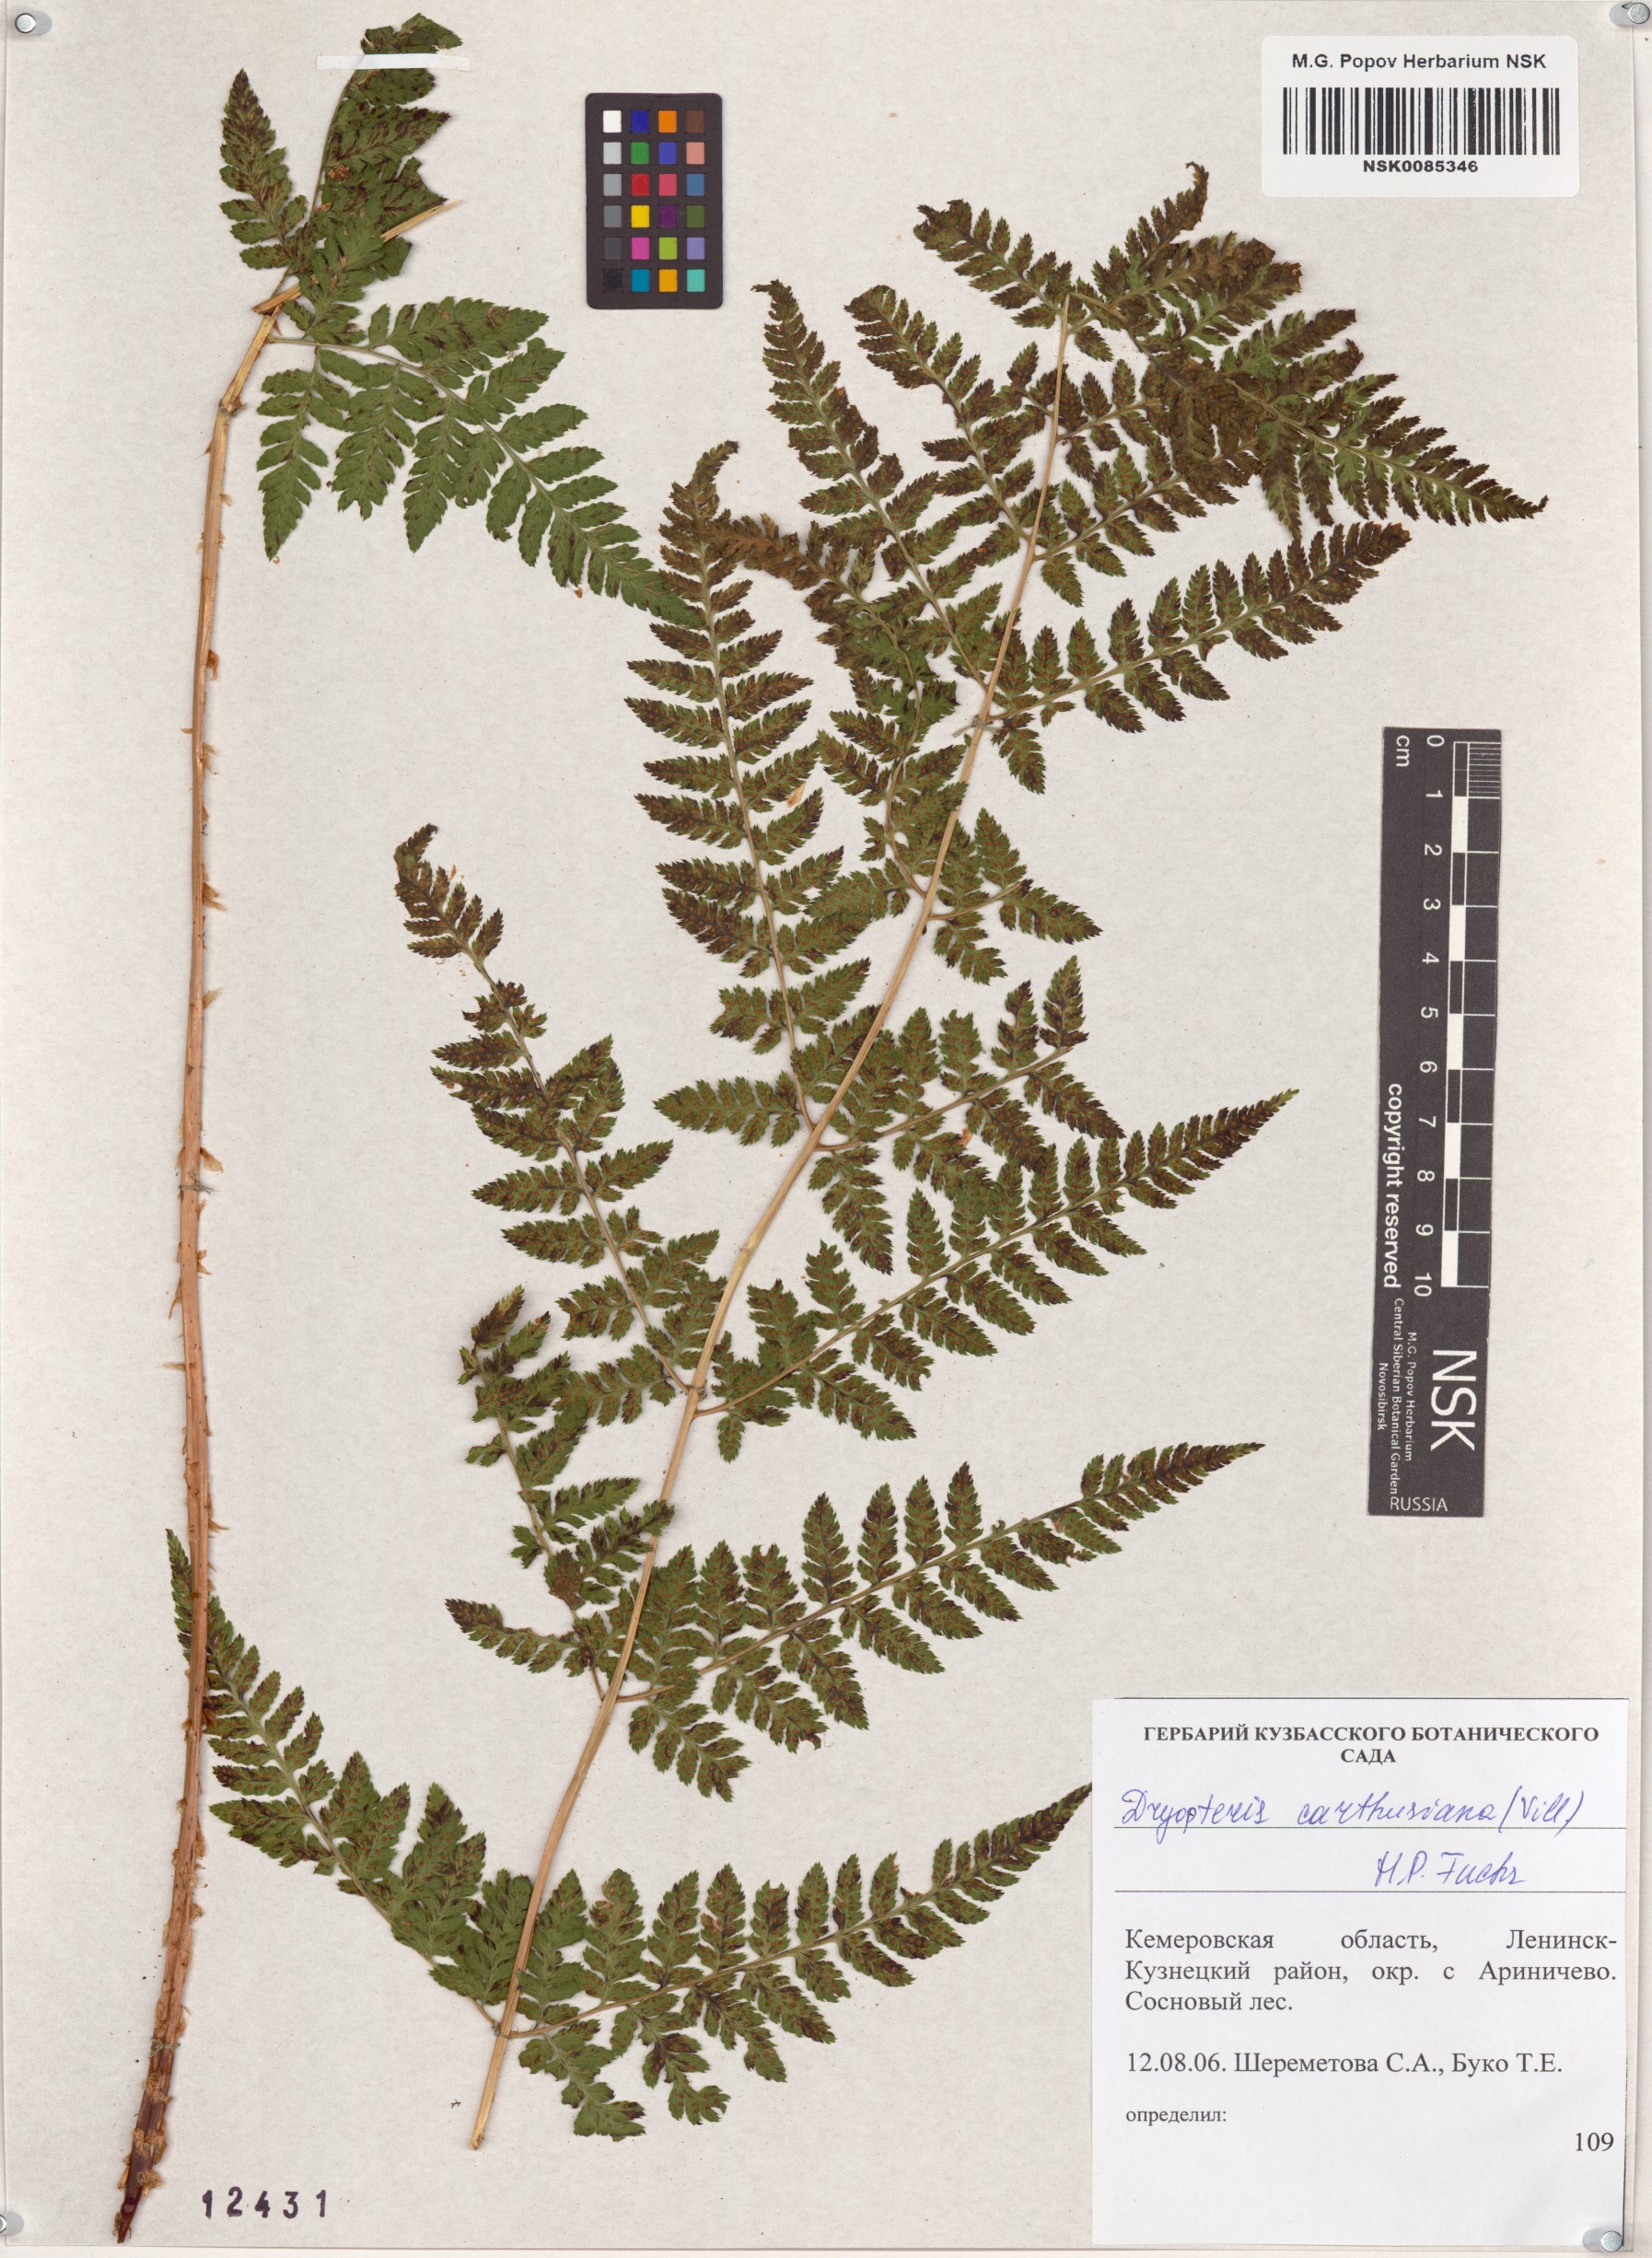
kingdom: Plantae
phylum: Tracheophyta
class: Polypodiopsida
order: Polypodiales
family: Dryopteridaceae
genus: Dryopteris
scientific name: Dryopteris carthusiana
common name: Narrow buckler-fern
